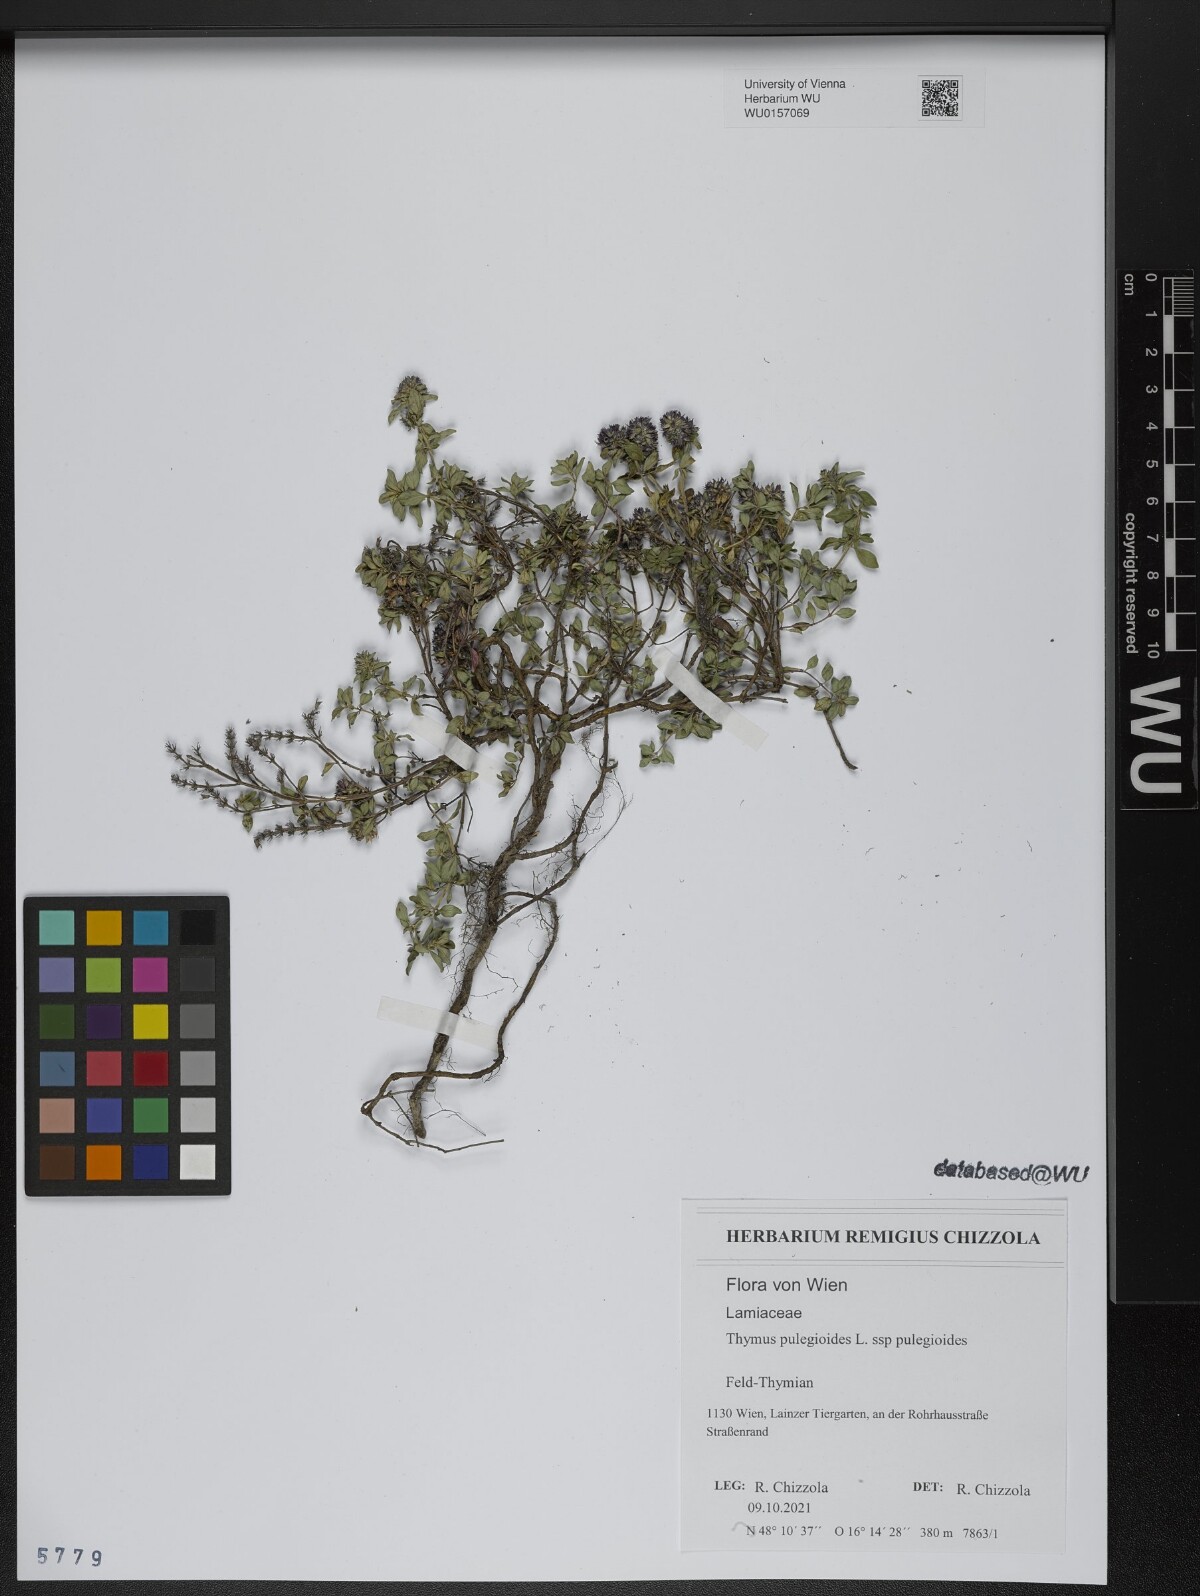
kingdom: Plantae
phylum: Tracheophyta
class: Magnoliopsida
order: Lamiales
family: Lamiaceae
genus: Thymus
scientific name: Thymus pulegioides
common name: Large thyme
